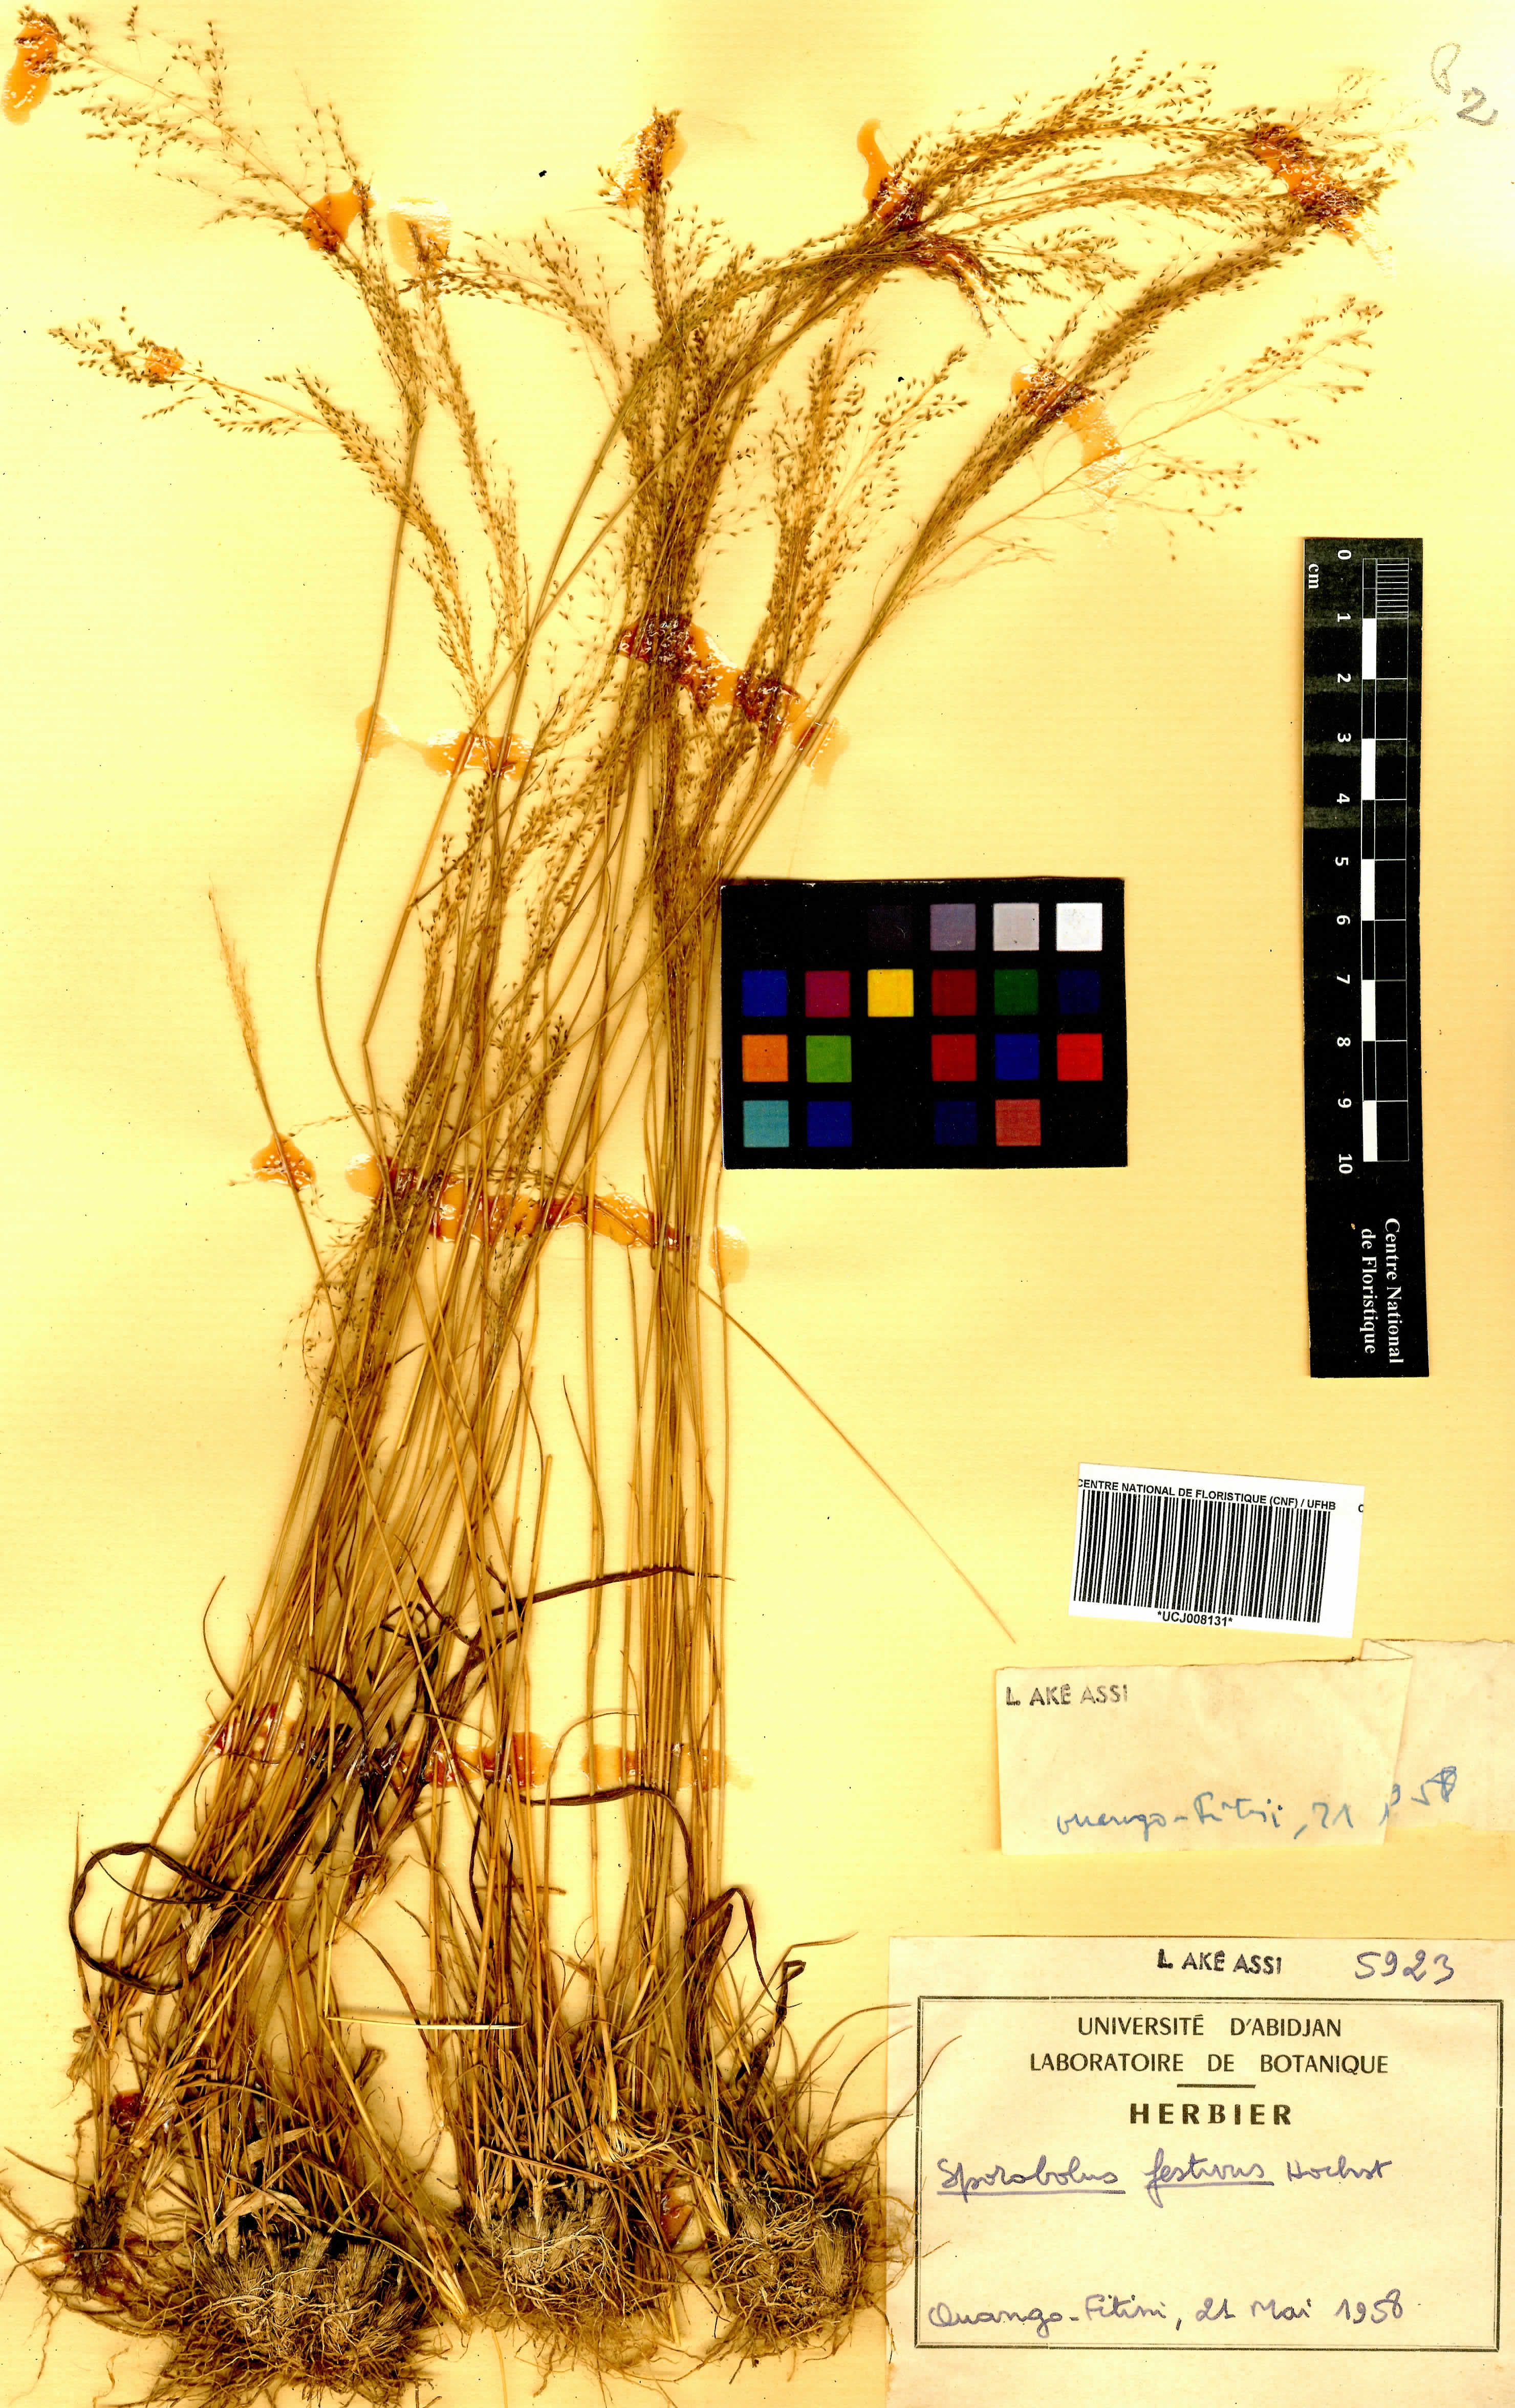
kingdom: Plantae
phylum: Tracheophyta
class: Liliopsida
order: Poales
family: Poaceae
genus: Sporobolus
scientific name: Sporobolus festivus
